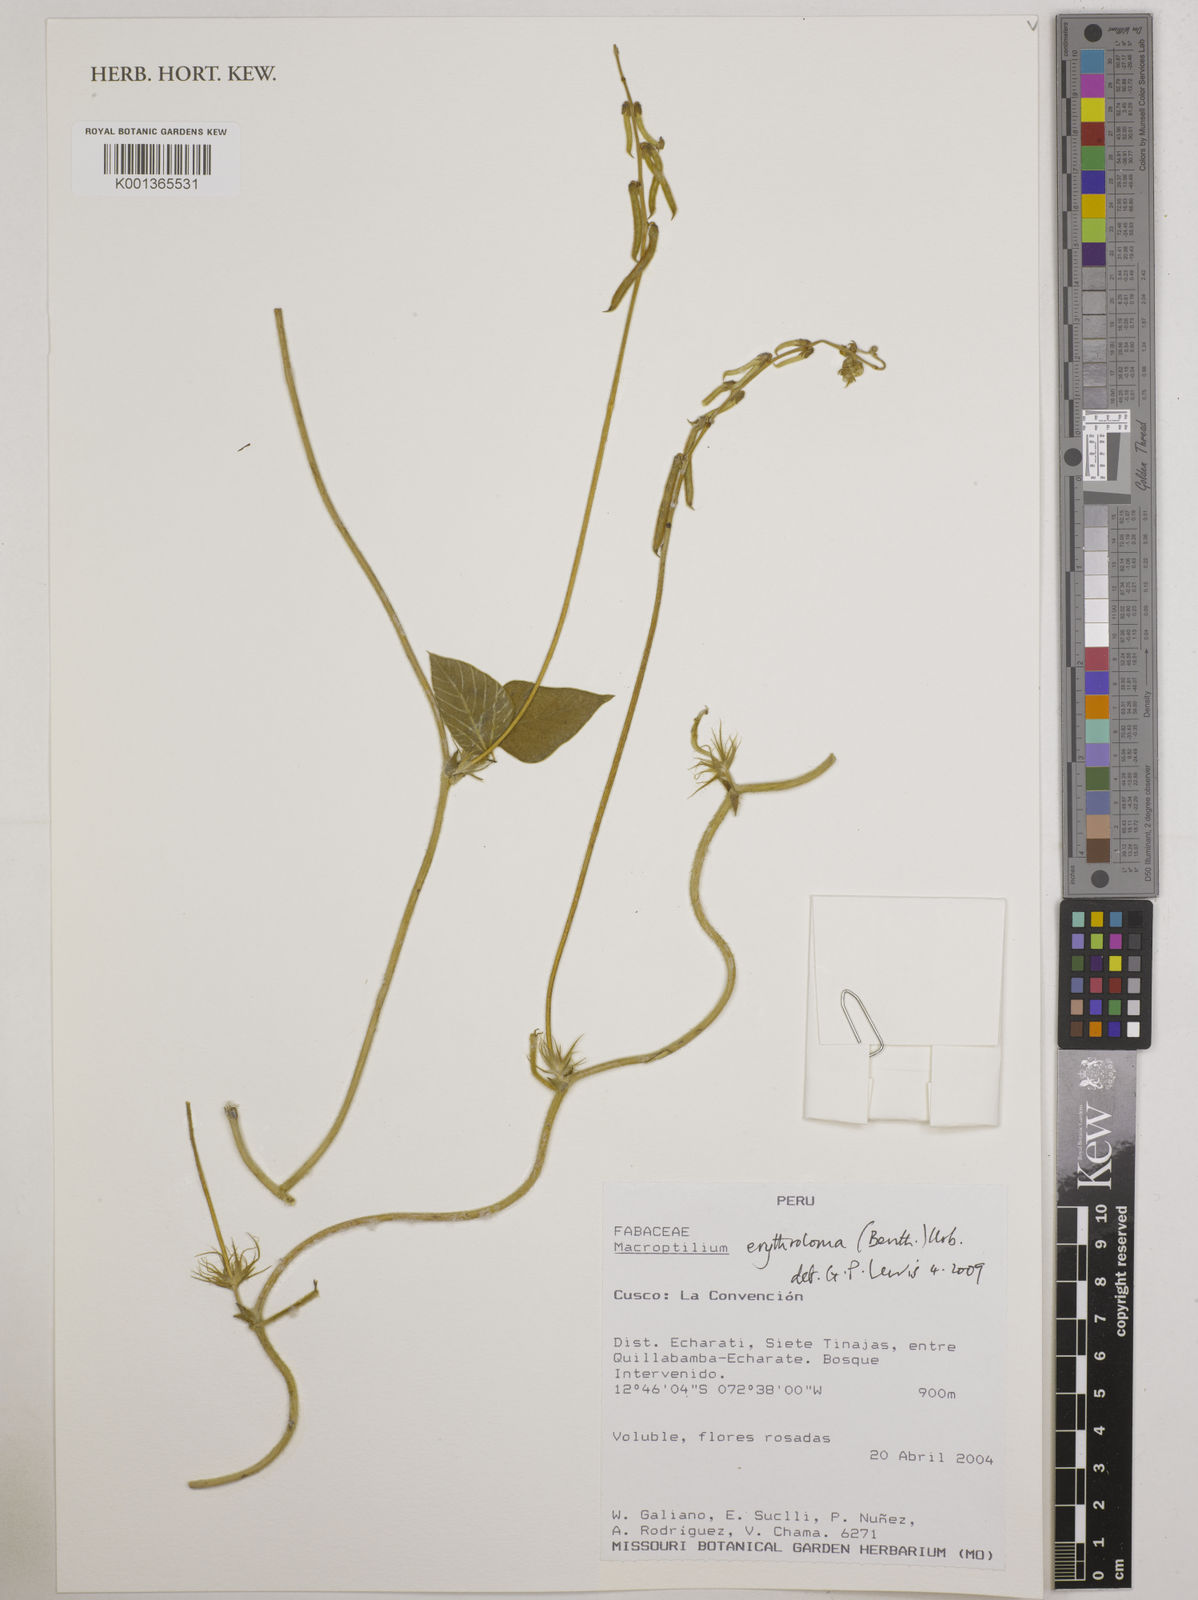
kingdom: Plantae
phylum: Tracheophyta
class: Magnoliopsida
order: Fabales
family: Fabaceae
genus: Macroptilium
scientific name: Macroptilium erythroloma
